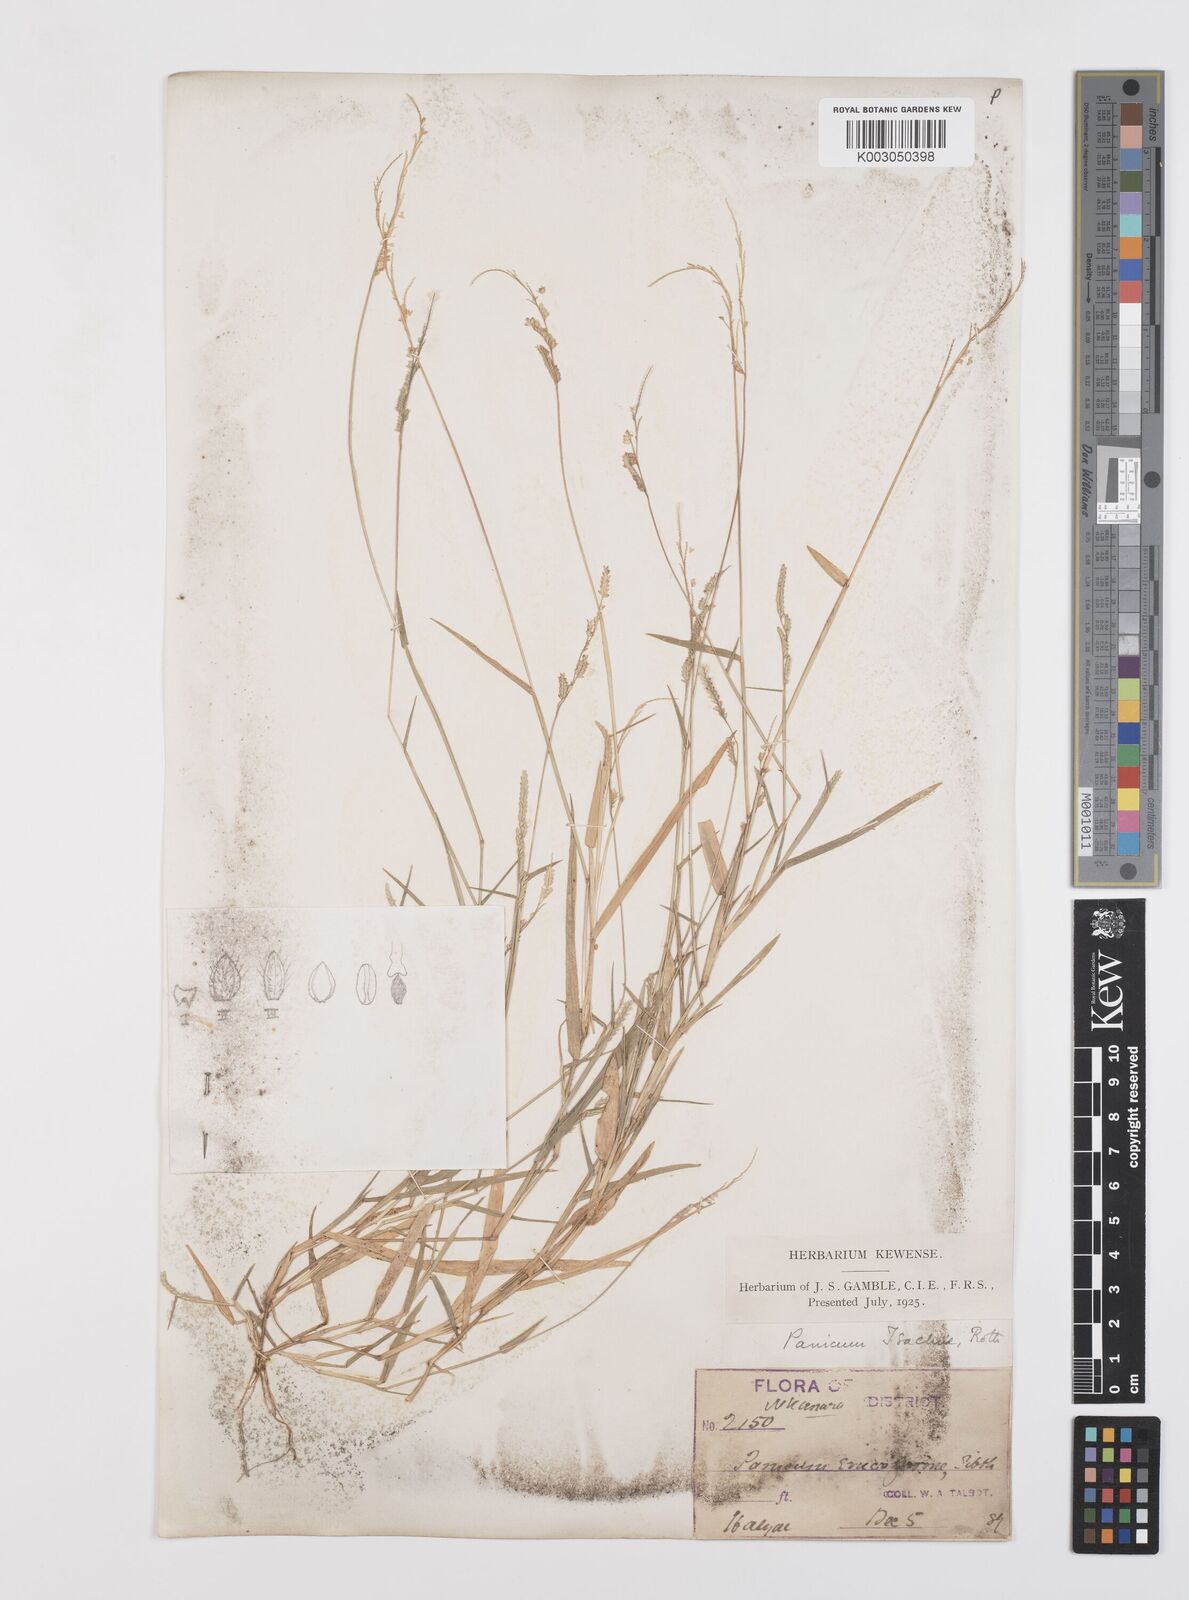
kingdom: Plantae
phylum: Tracheophyta
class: Liliopsida
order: Poales
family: Poaceae
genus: Moorochloa
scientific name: Moorochloa eruciformis
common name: Sweet signalgrass
